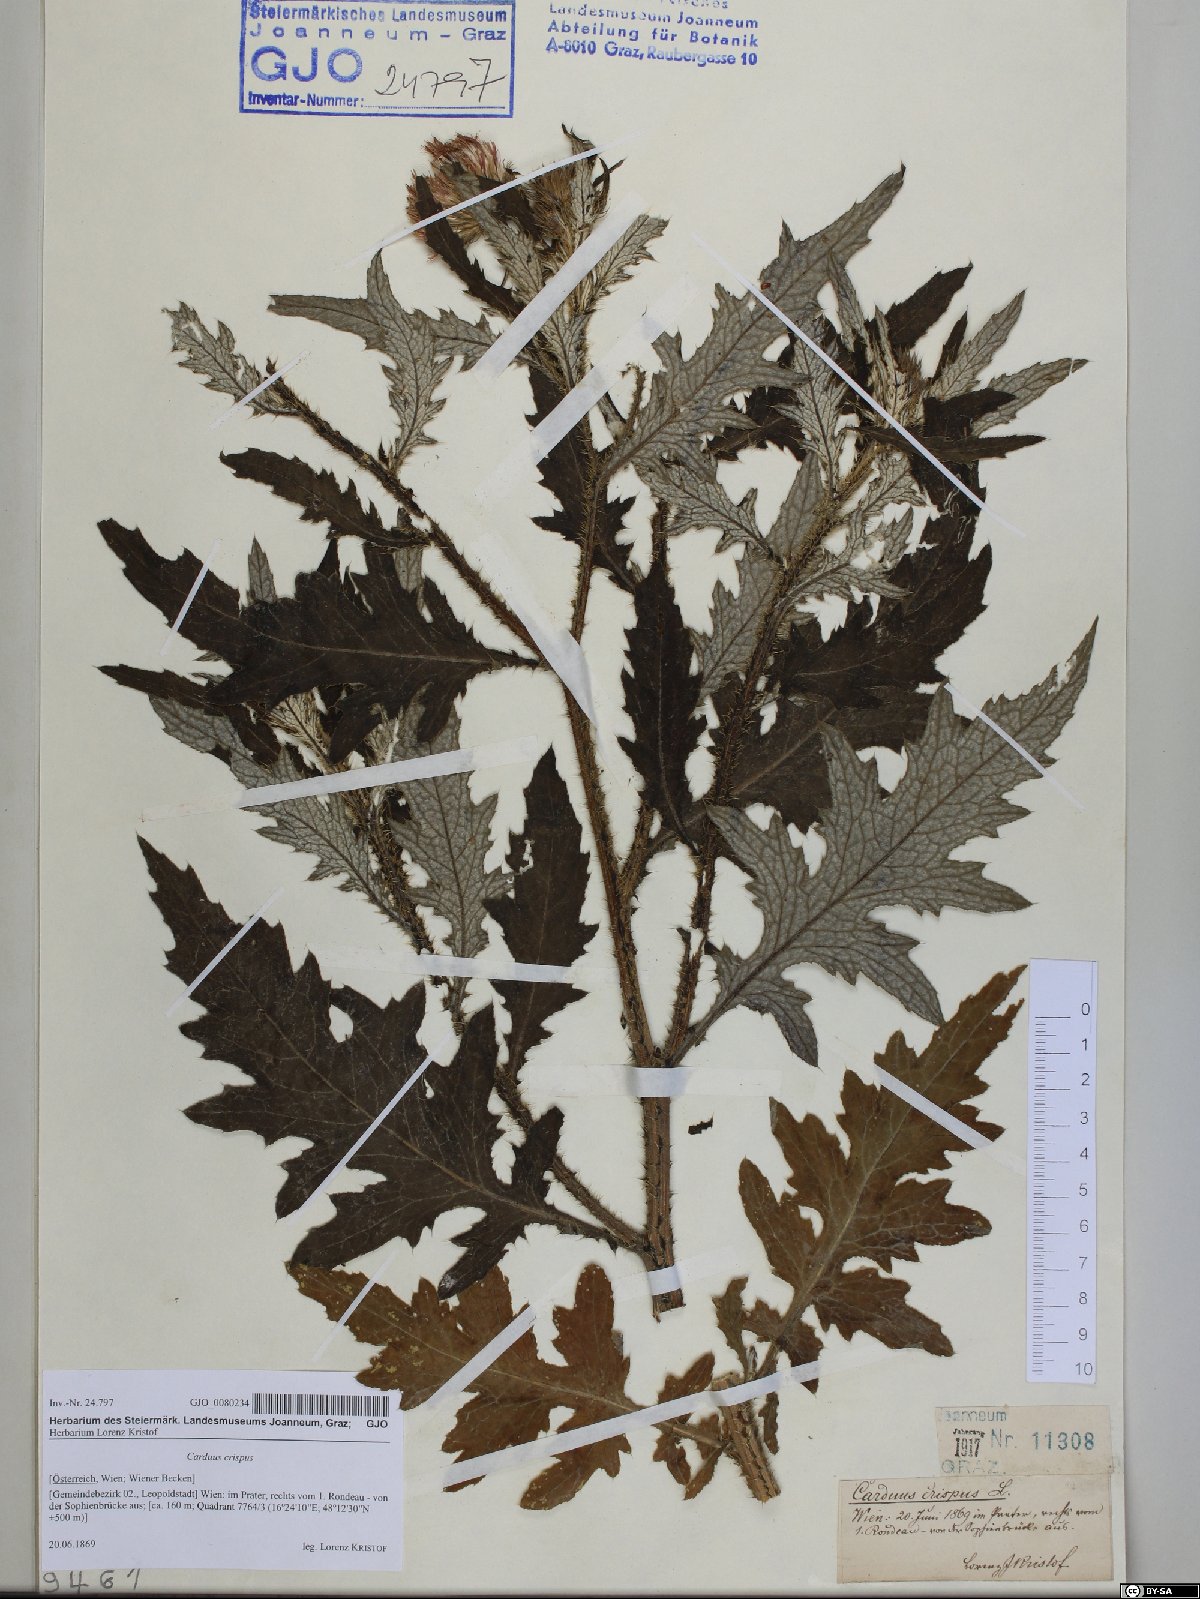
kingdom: Plantae
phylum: Tracheophyta
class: Magnoliopsida
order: Asterales
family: Asteraceae
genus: Carduus
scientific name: Carduus crispus
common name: Welted thistle
